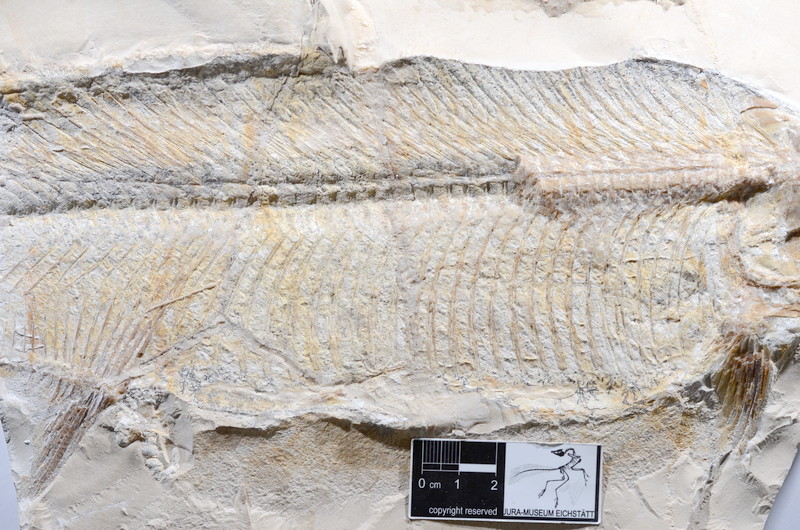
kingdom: Animalia
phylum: Chordata
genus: Thrissops
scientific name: Thrissops subovatus
